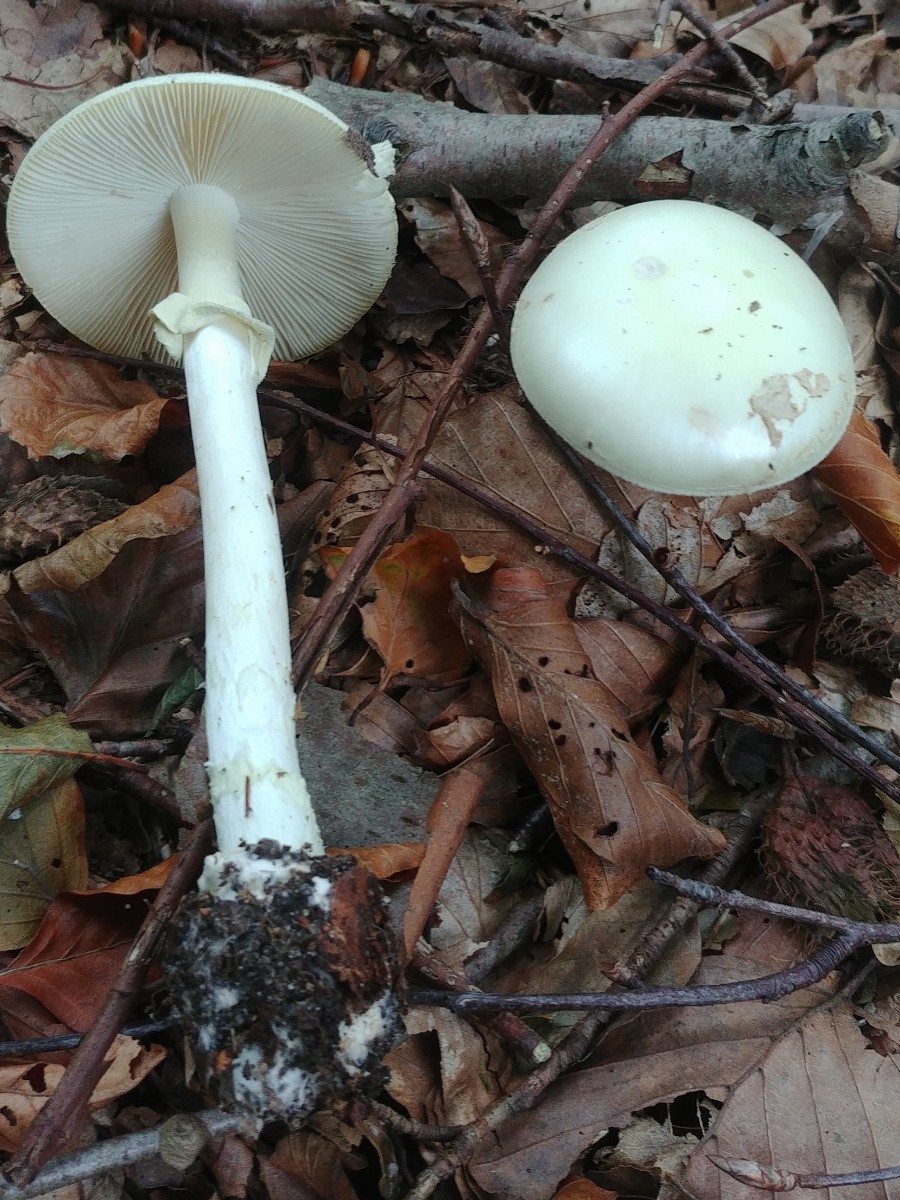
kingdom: Fungi
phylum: Basidiomycota
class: Agaricomycetes
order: Agaricales
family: Amanitaceae
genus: Amanita
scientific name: Amanita citrina
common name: kugleknoldet fluesvamp
